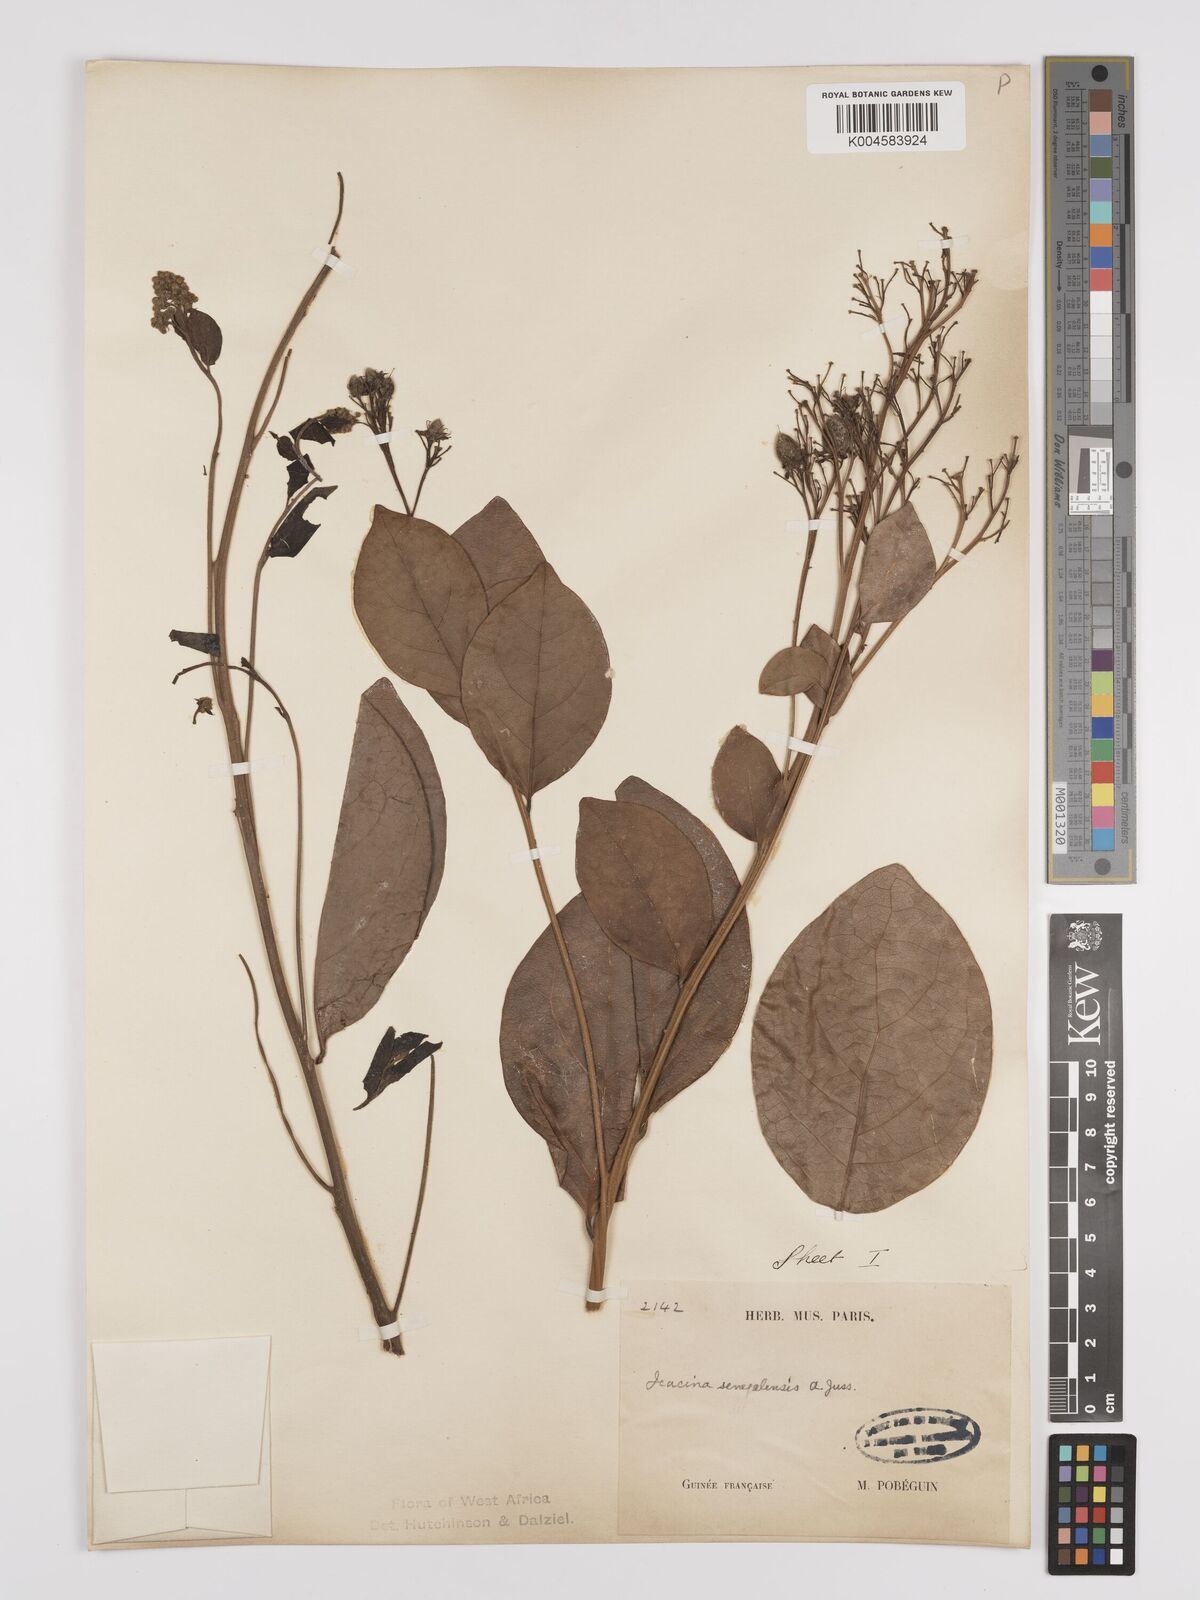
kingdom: Plantae
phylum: Tracheophyta
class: Magnoliopsida
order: Icacinales
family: Icacinaceae
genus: Icacina
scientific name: Icacina oliviformis
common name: False yam
